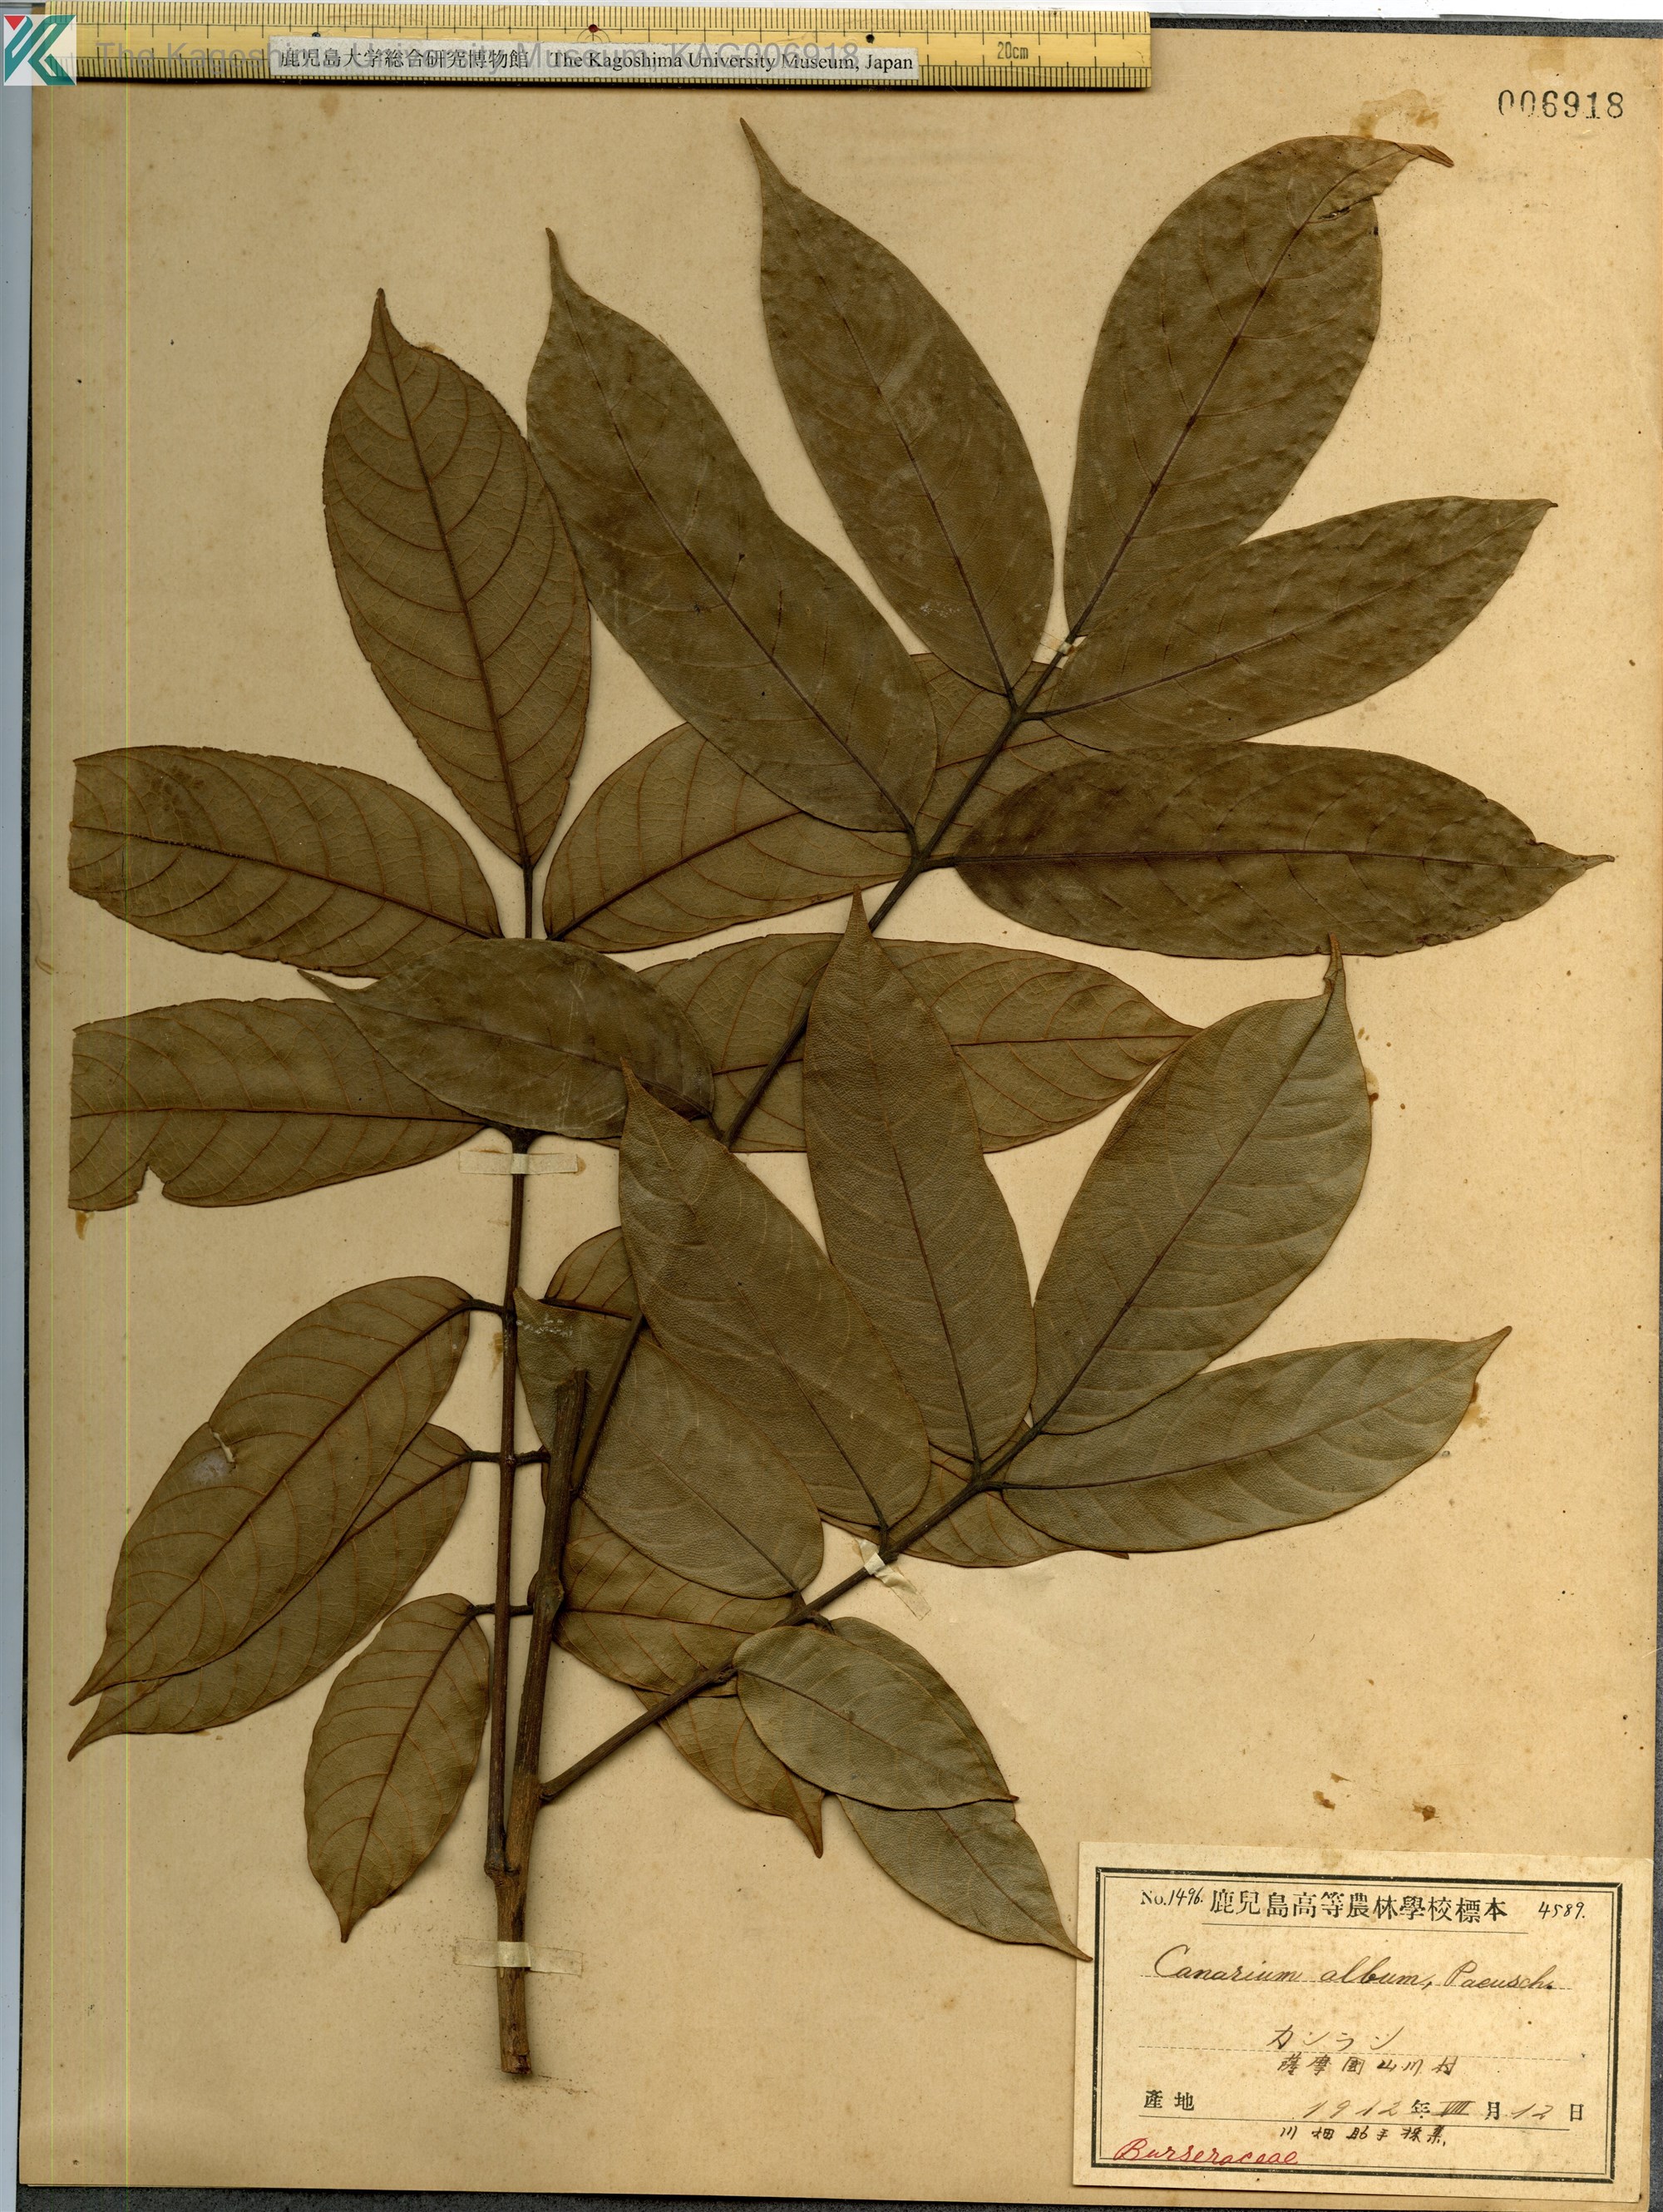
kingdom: Plantae
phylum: Tracheophyta
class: Magnoliopsida
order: Sapindales
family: Burseraceae
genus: Canarium
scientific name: Canarium album
